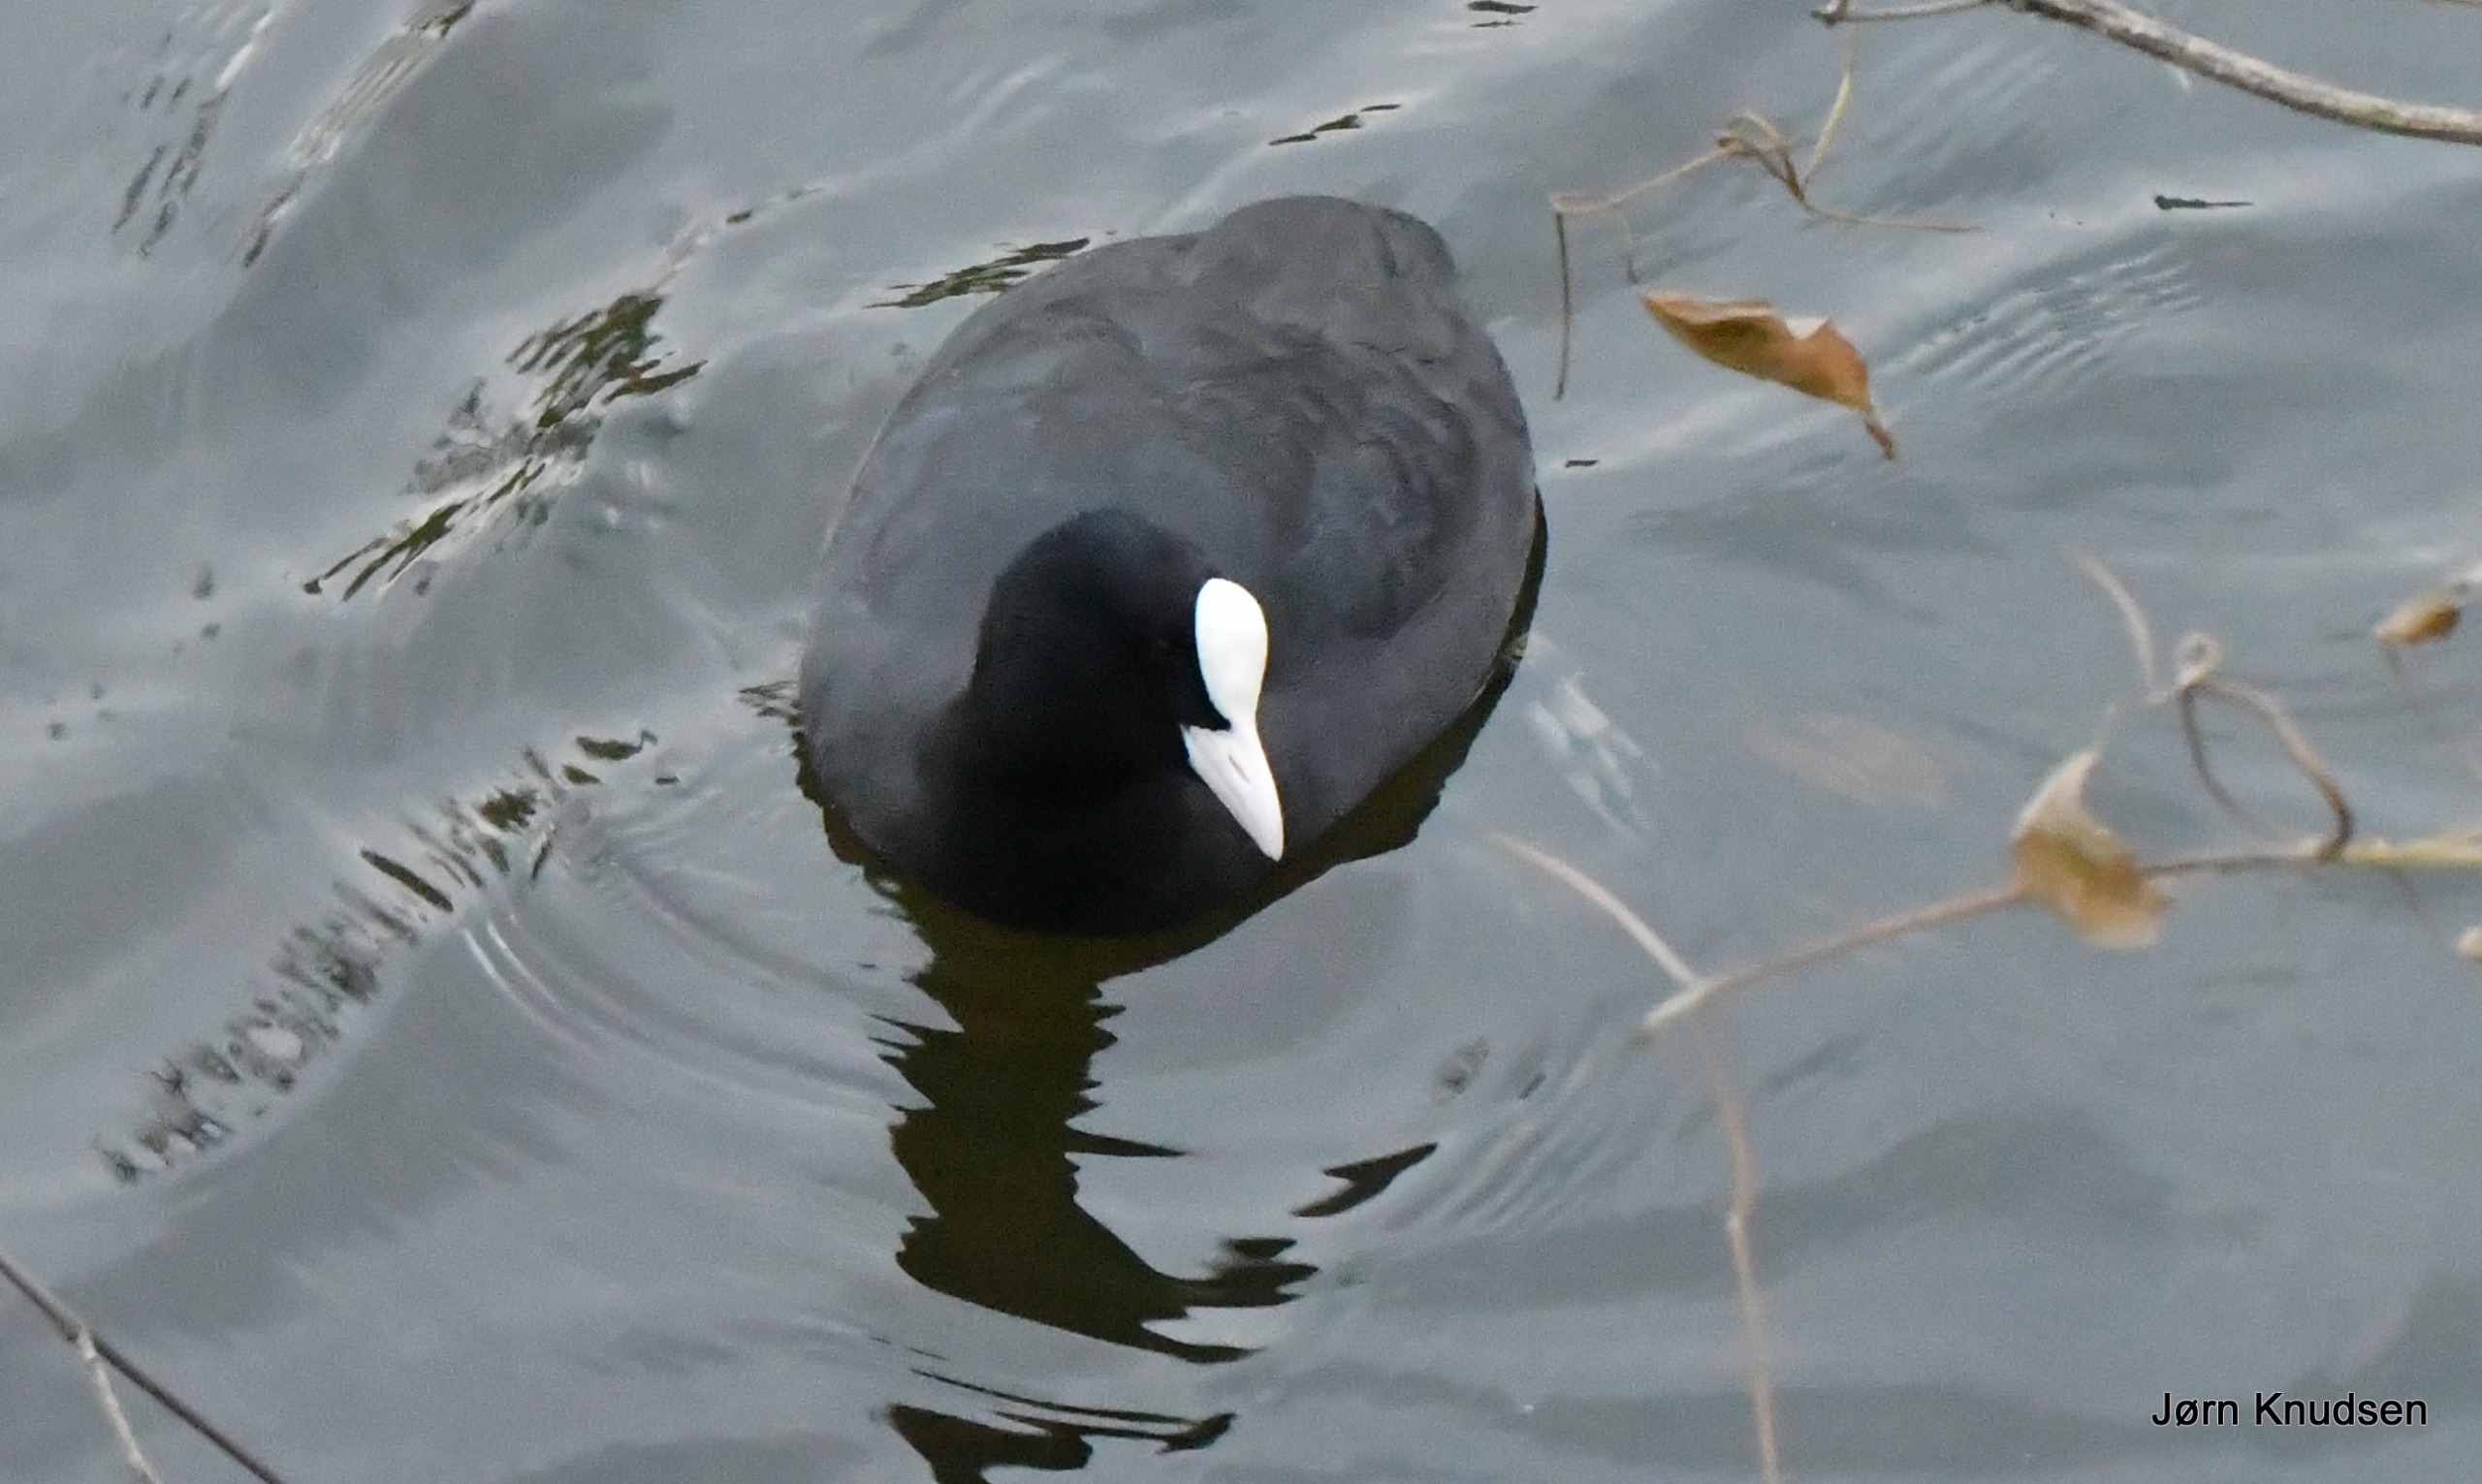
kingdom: Animalia
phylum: Chordata
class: Aves
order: Gruiformes
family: Rallidae
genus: Fulica
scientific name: Fulica atra
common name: Blishøne
